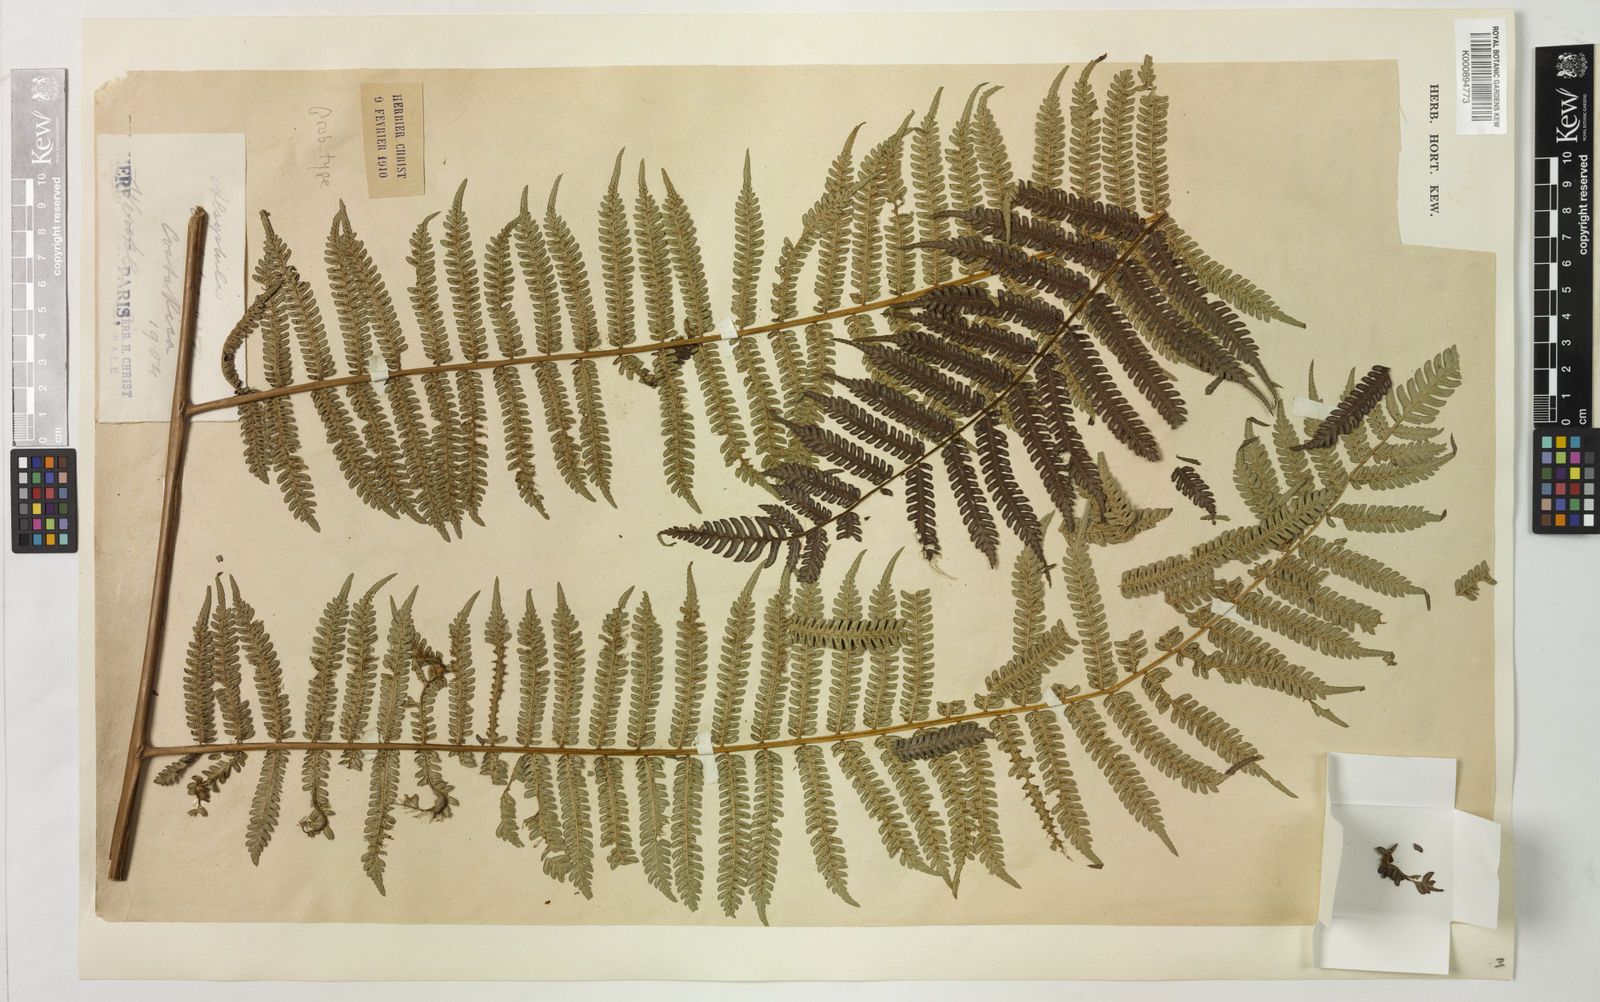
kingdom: Plantae
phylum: Tracheophyta
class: Polypodiopsida
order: Cyatheales
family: Cyatheaceae
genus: Cyathea
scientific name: Cyathea
